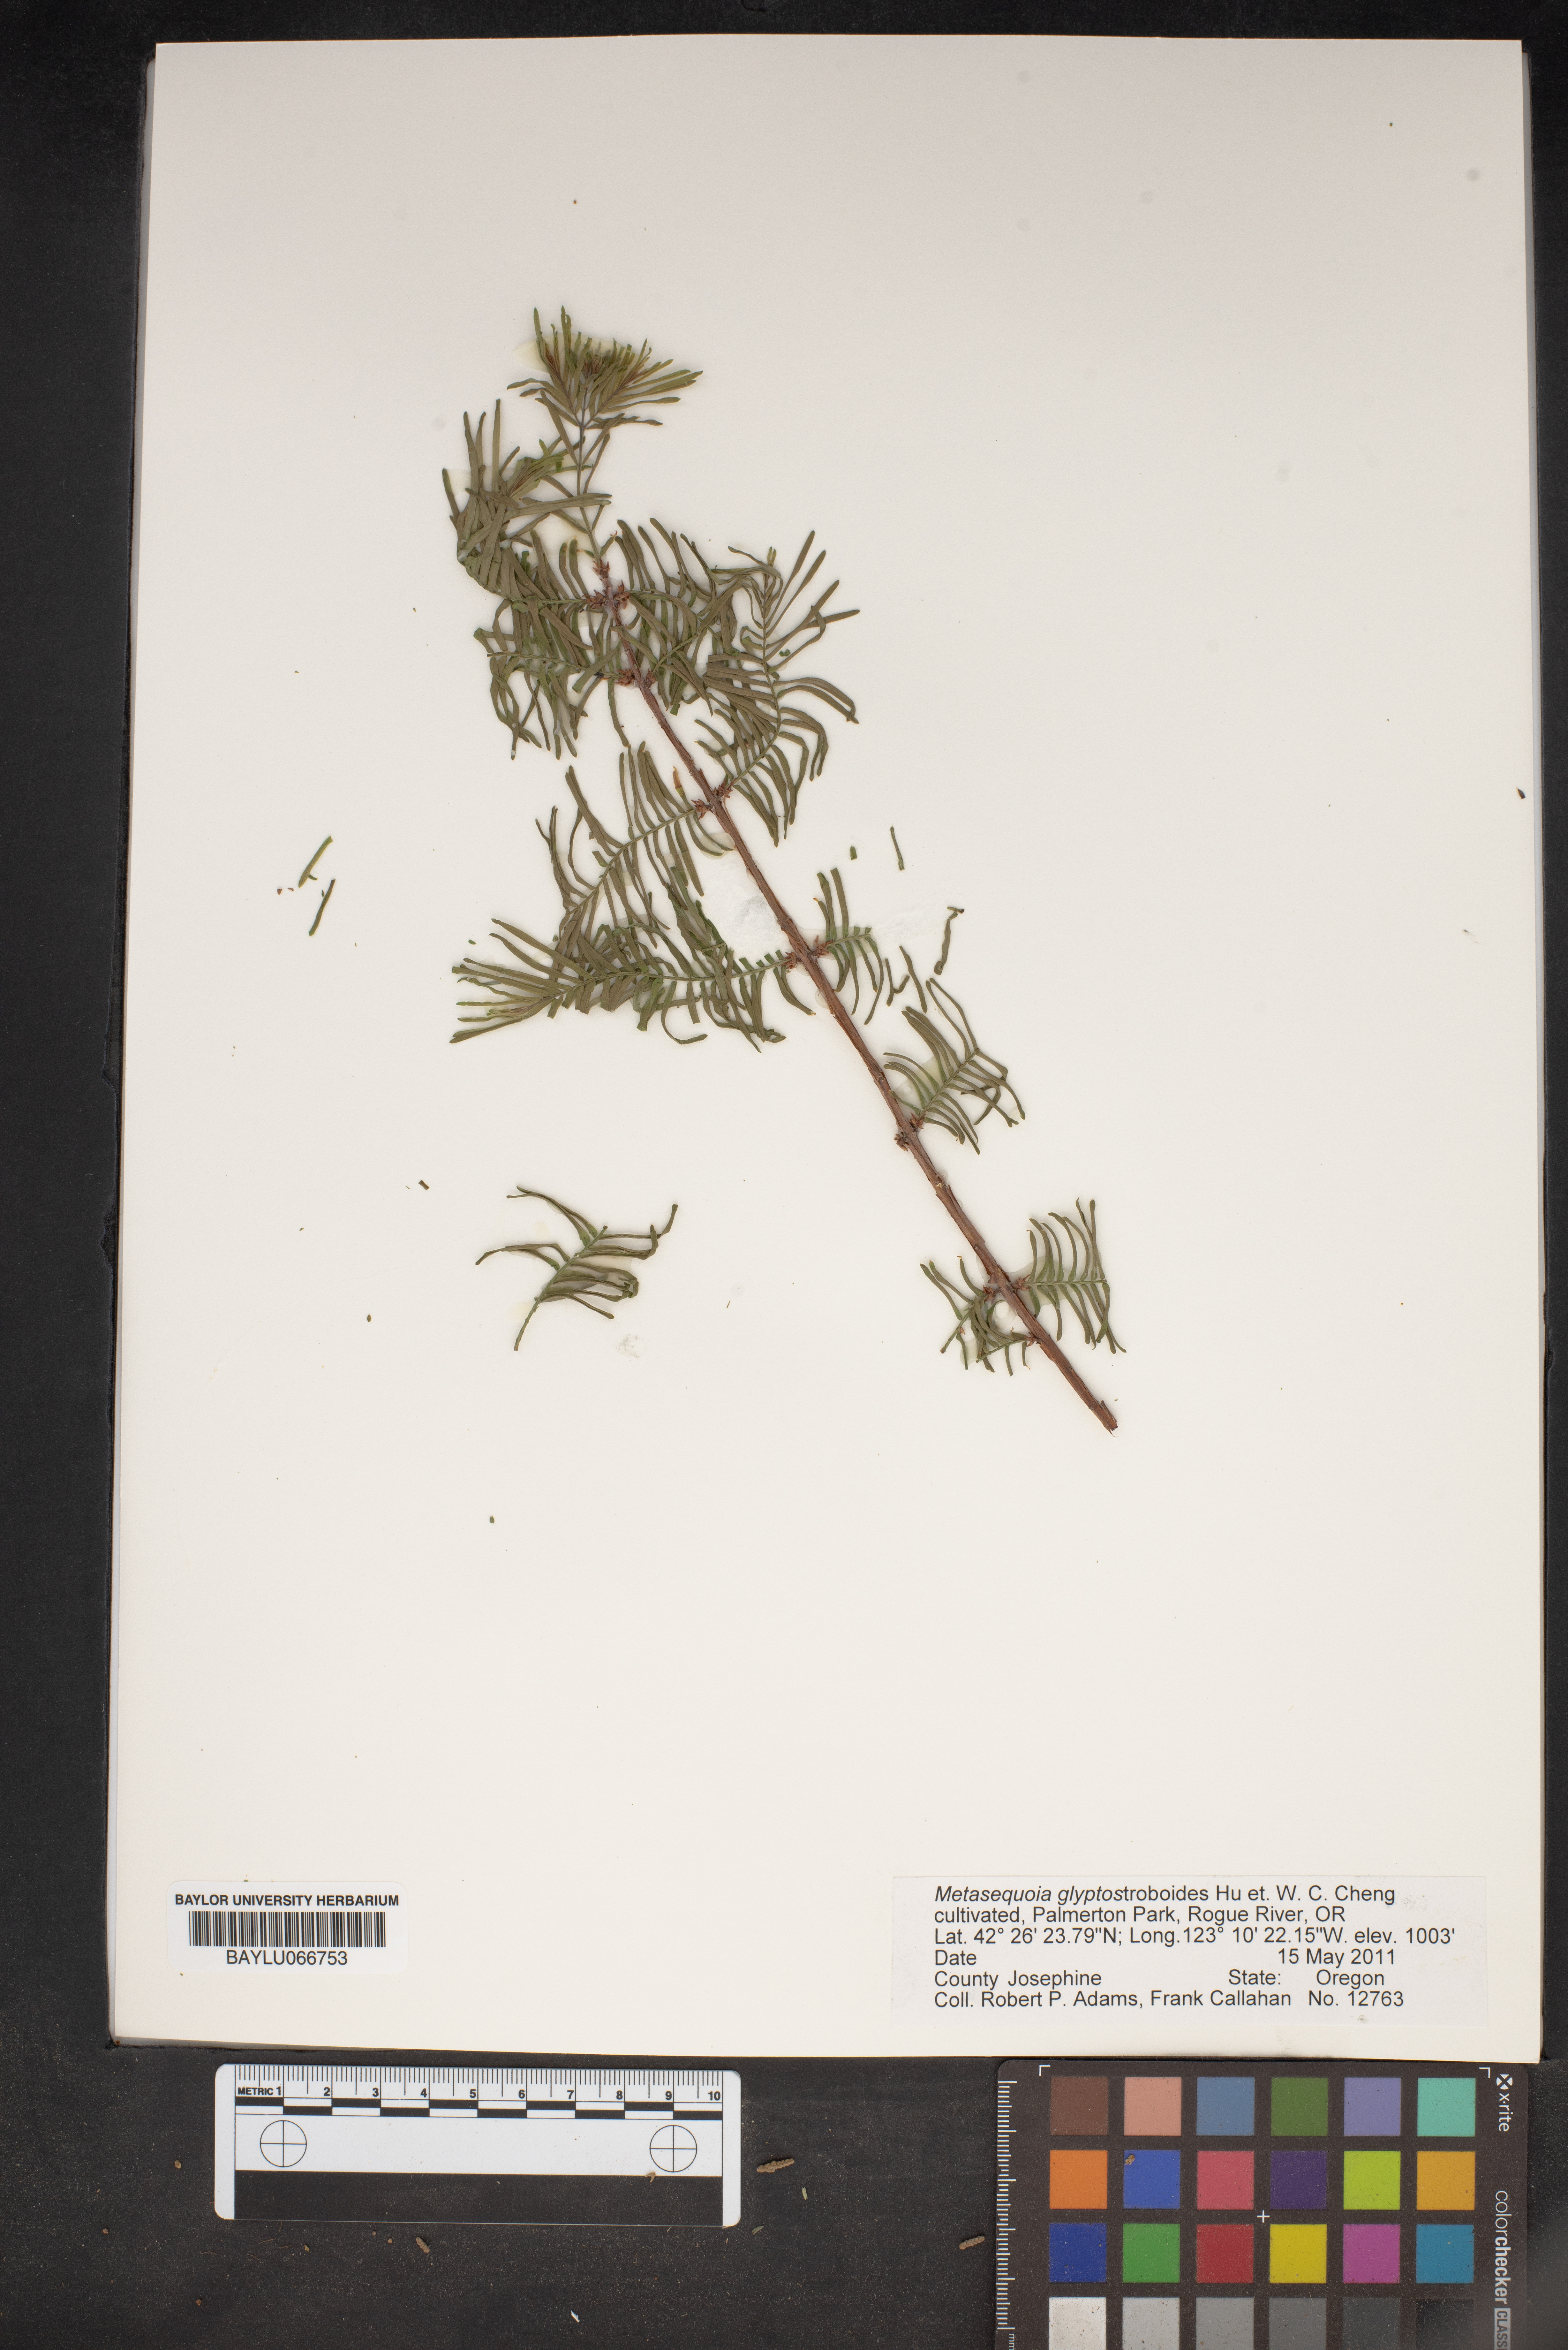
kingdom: Plantae
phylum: Tracheophyta
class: Pinopsida
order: Pinales
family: Cupressaceae
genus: Metasequoia
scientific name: Metasequoia glyptostroboides
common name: Dawn redwood
